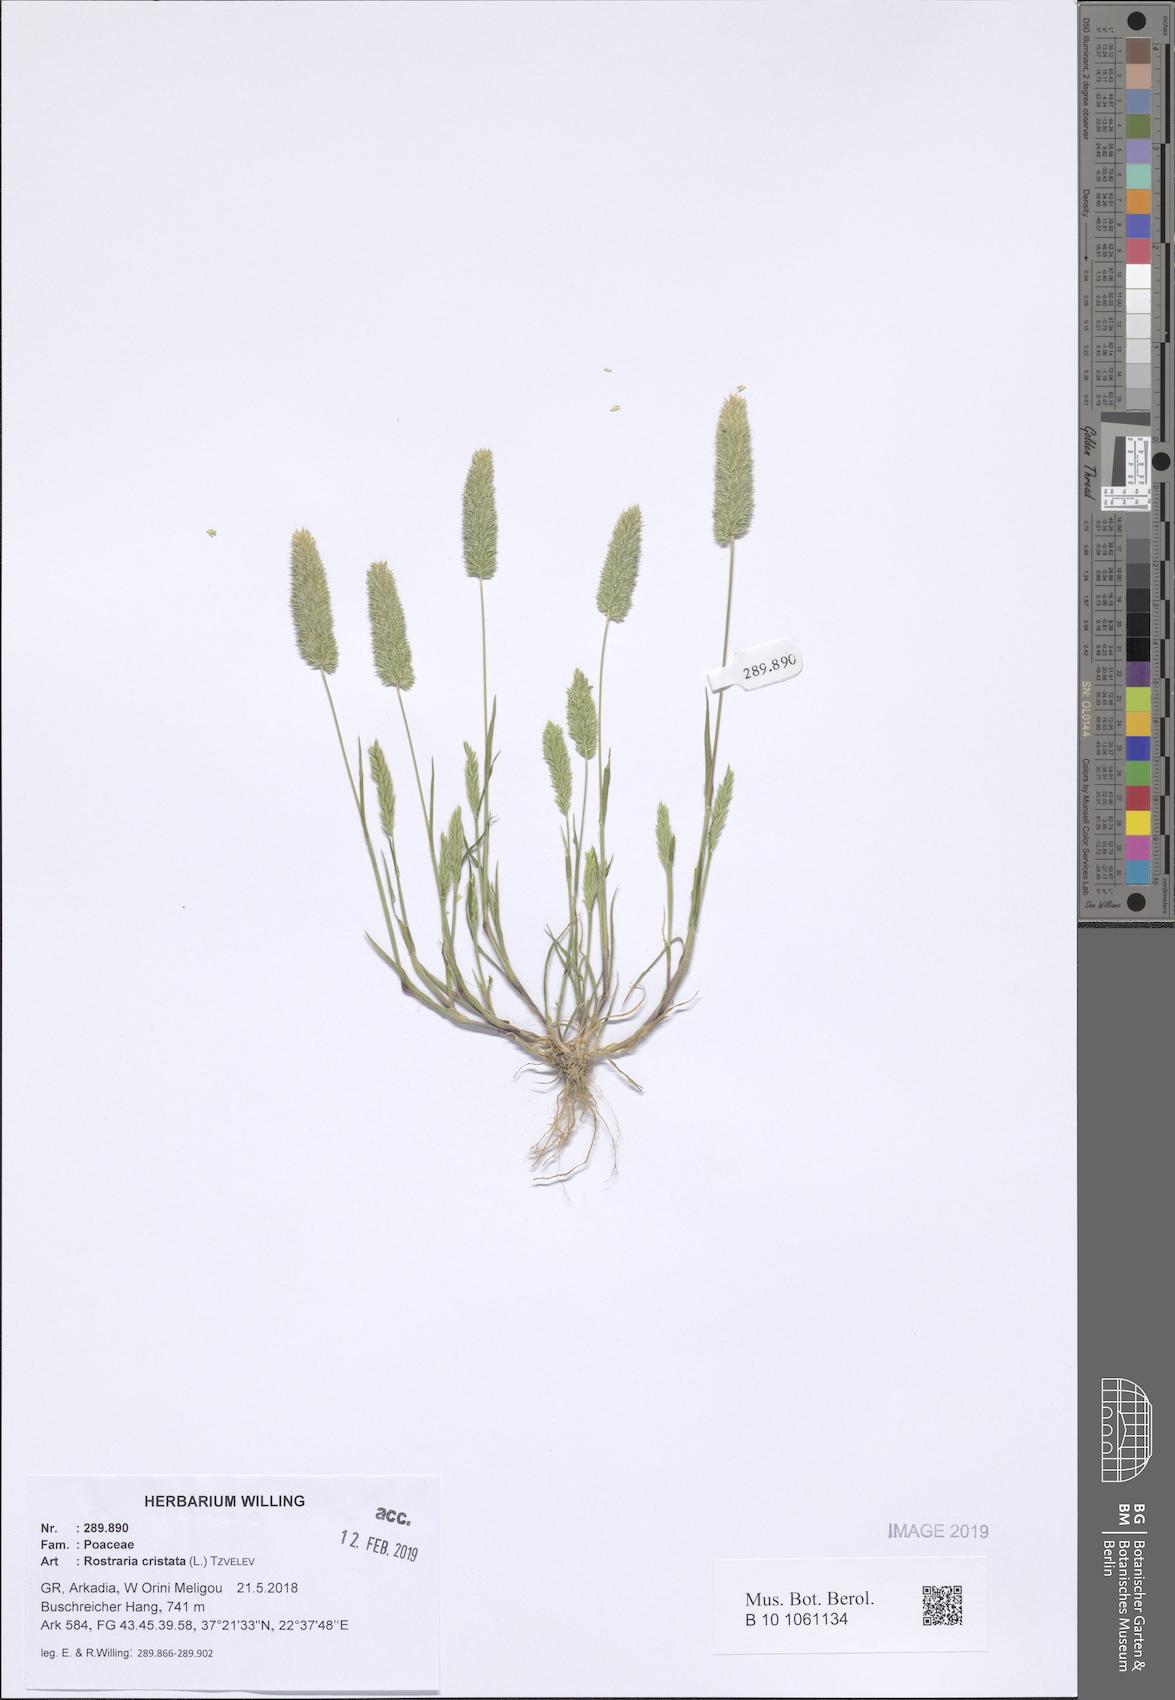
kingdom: Plantae
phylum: Tracheophyta
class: Liliopsida
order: Poales
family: Poaceae
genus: Rostraria
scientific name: Rostraria cristata
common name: Mediterranean hair-grass
